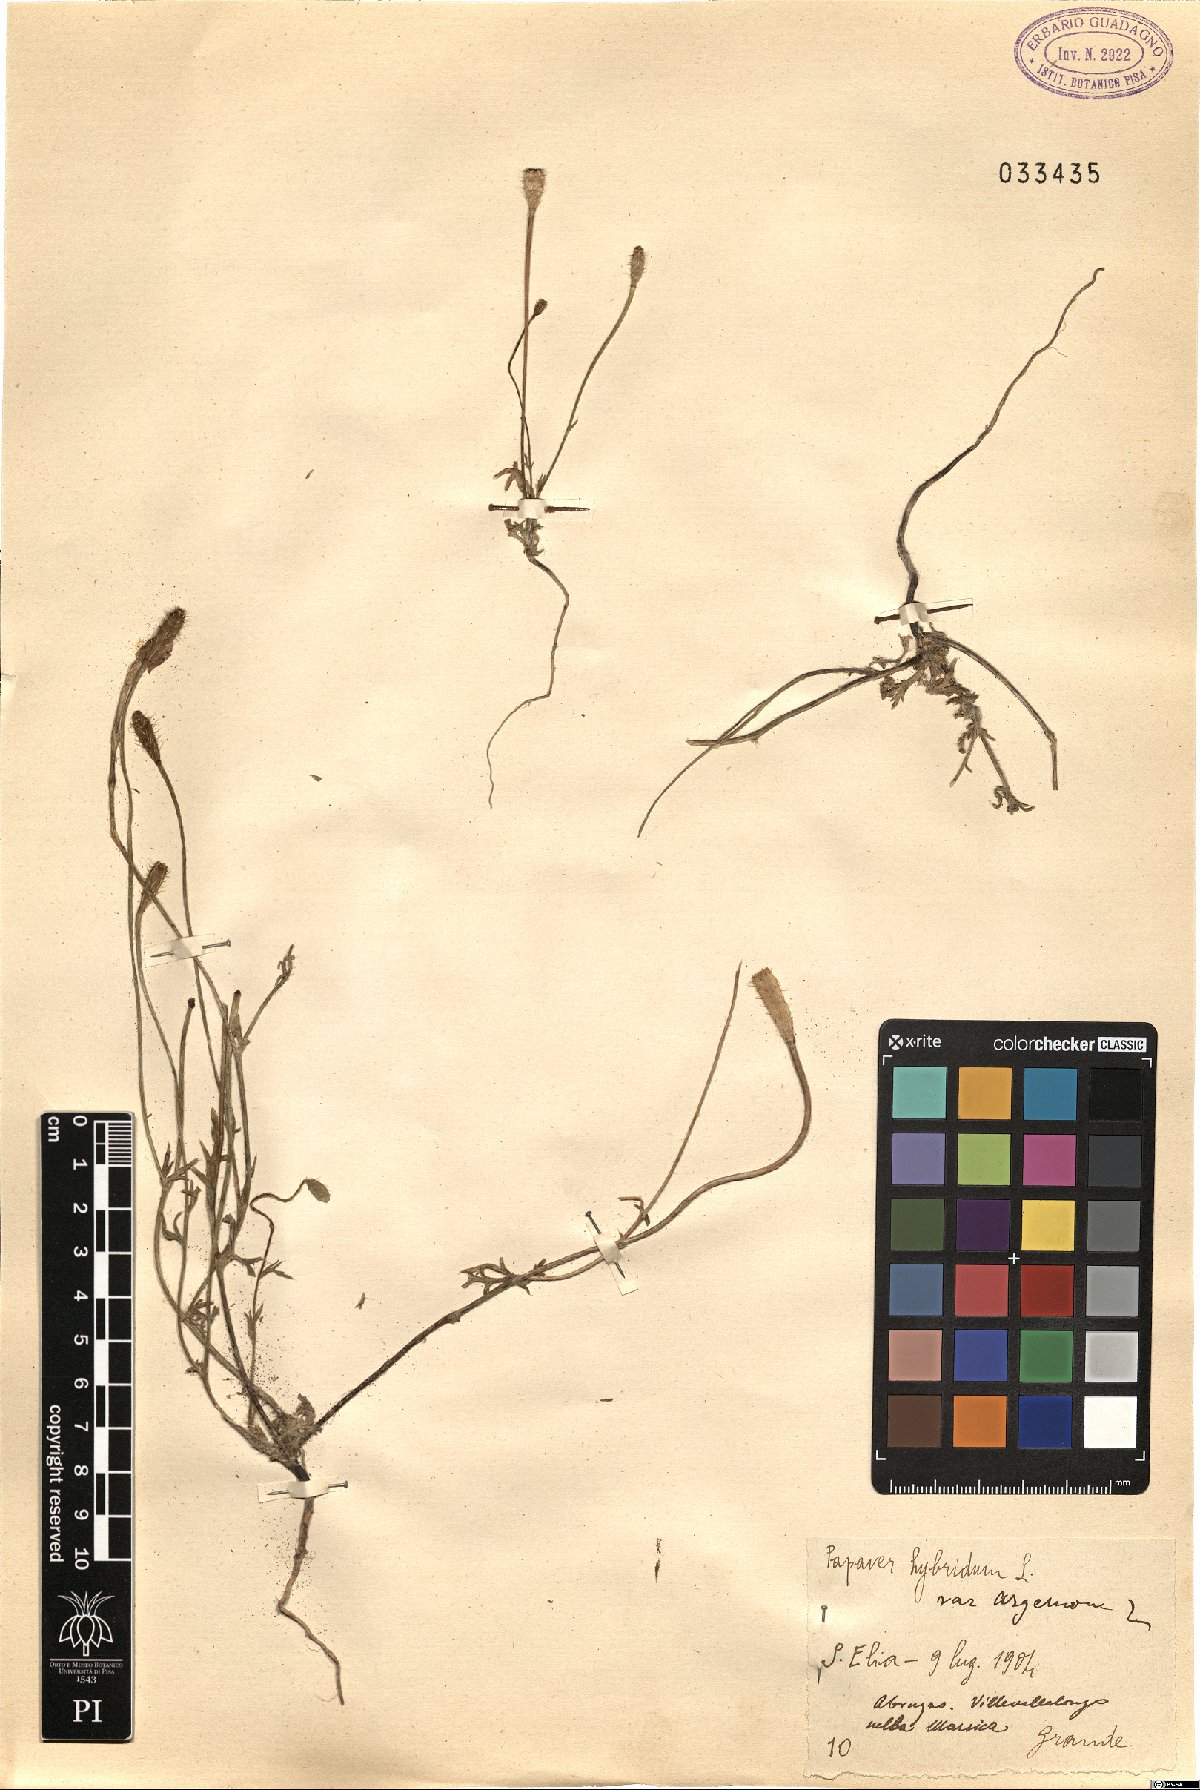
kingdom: Plantae
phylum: Tracheophyta
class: Magnoliopsida
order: Ranunculales
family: Papaveraceae
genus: Roemeria
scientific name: Roemeria
